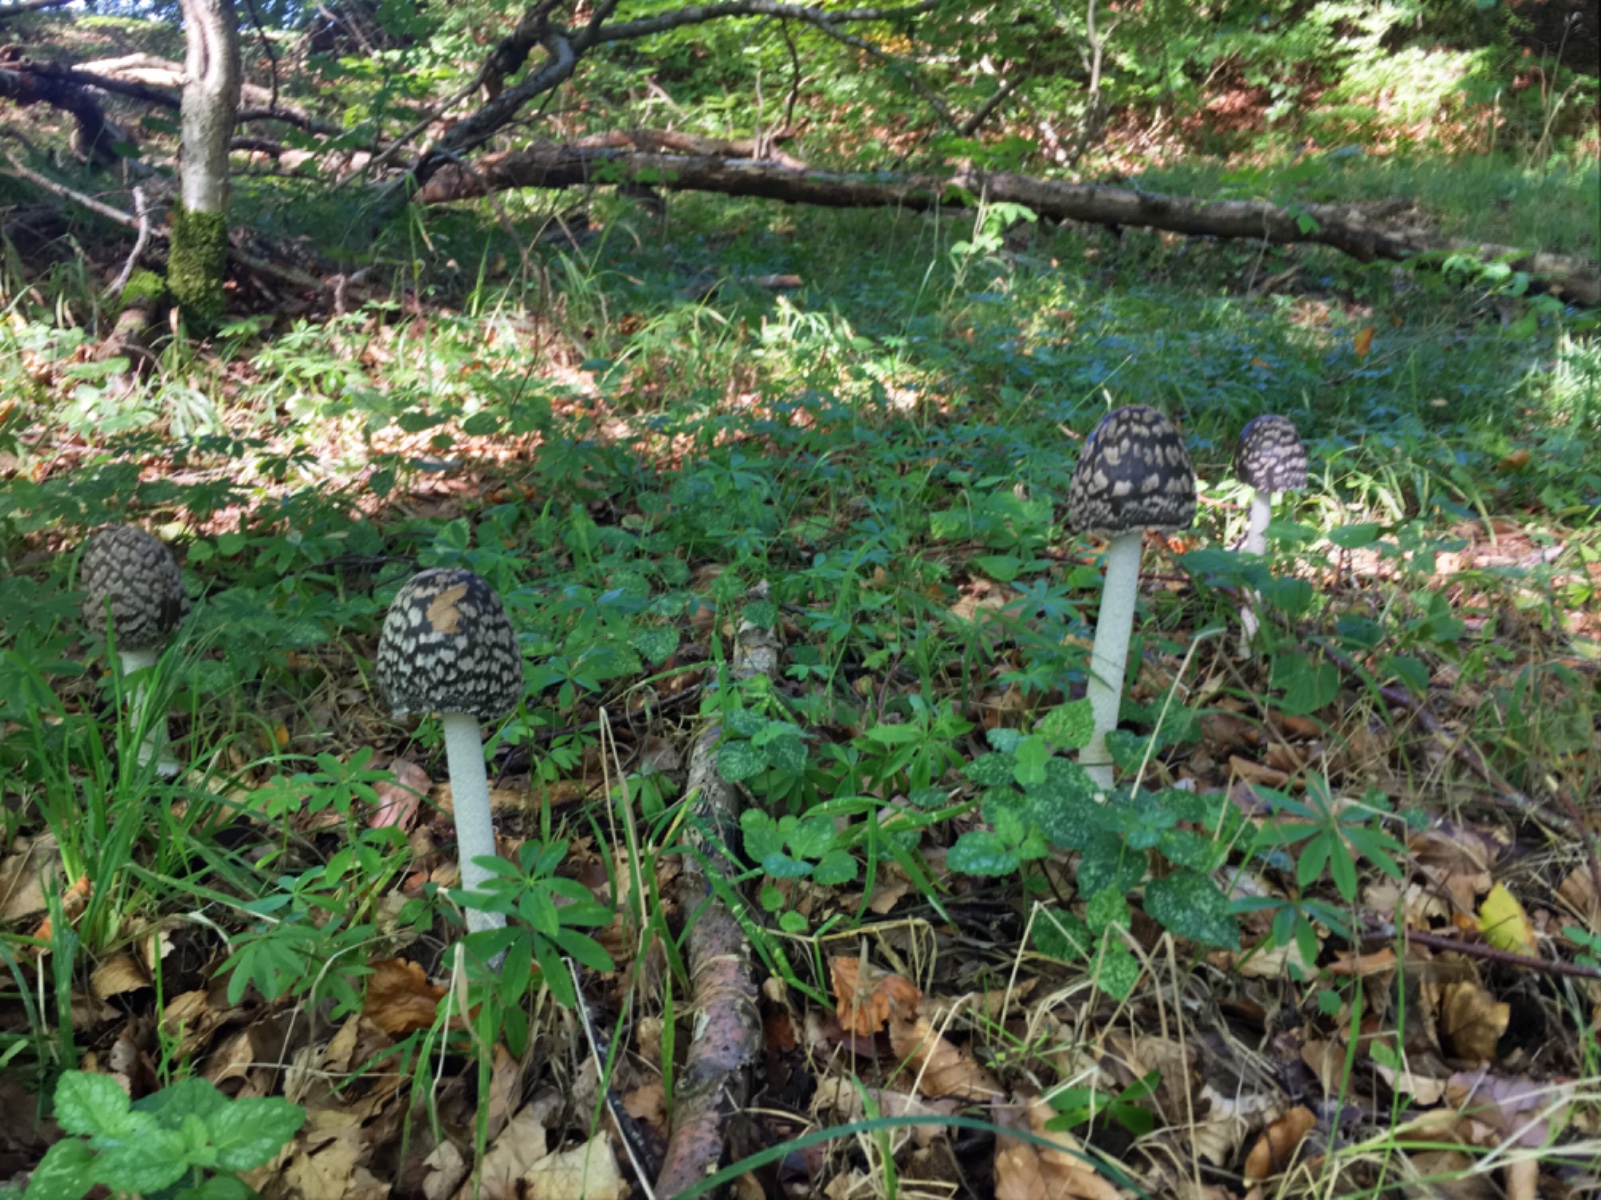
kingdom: Fungi
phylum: Basidiomycota
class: Agaricomycetes
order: Agaricales
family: Psathyrellaceae
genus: Coprinopsis
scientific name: Coprinopsis picacea
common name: skade-blækhat
